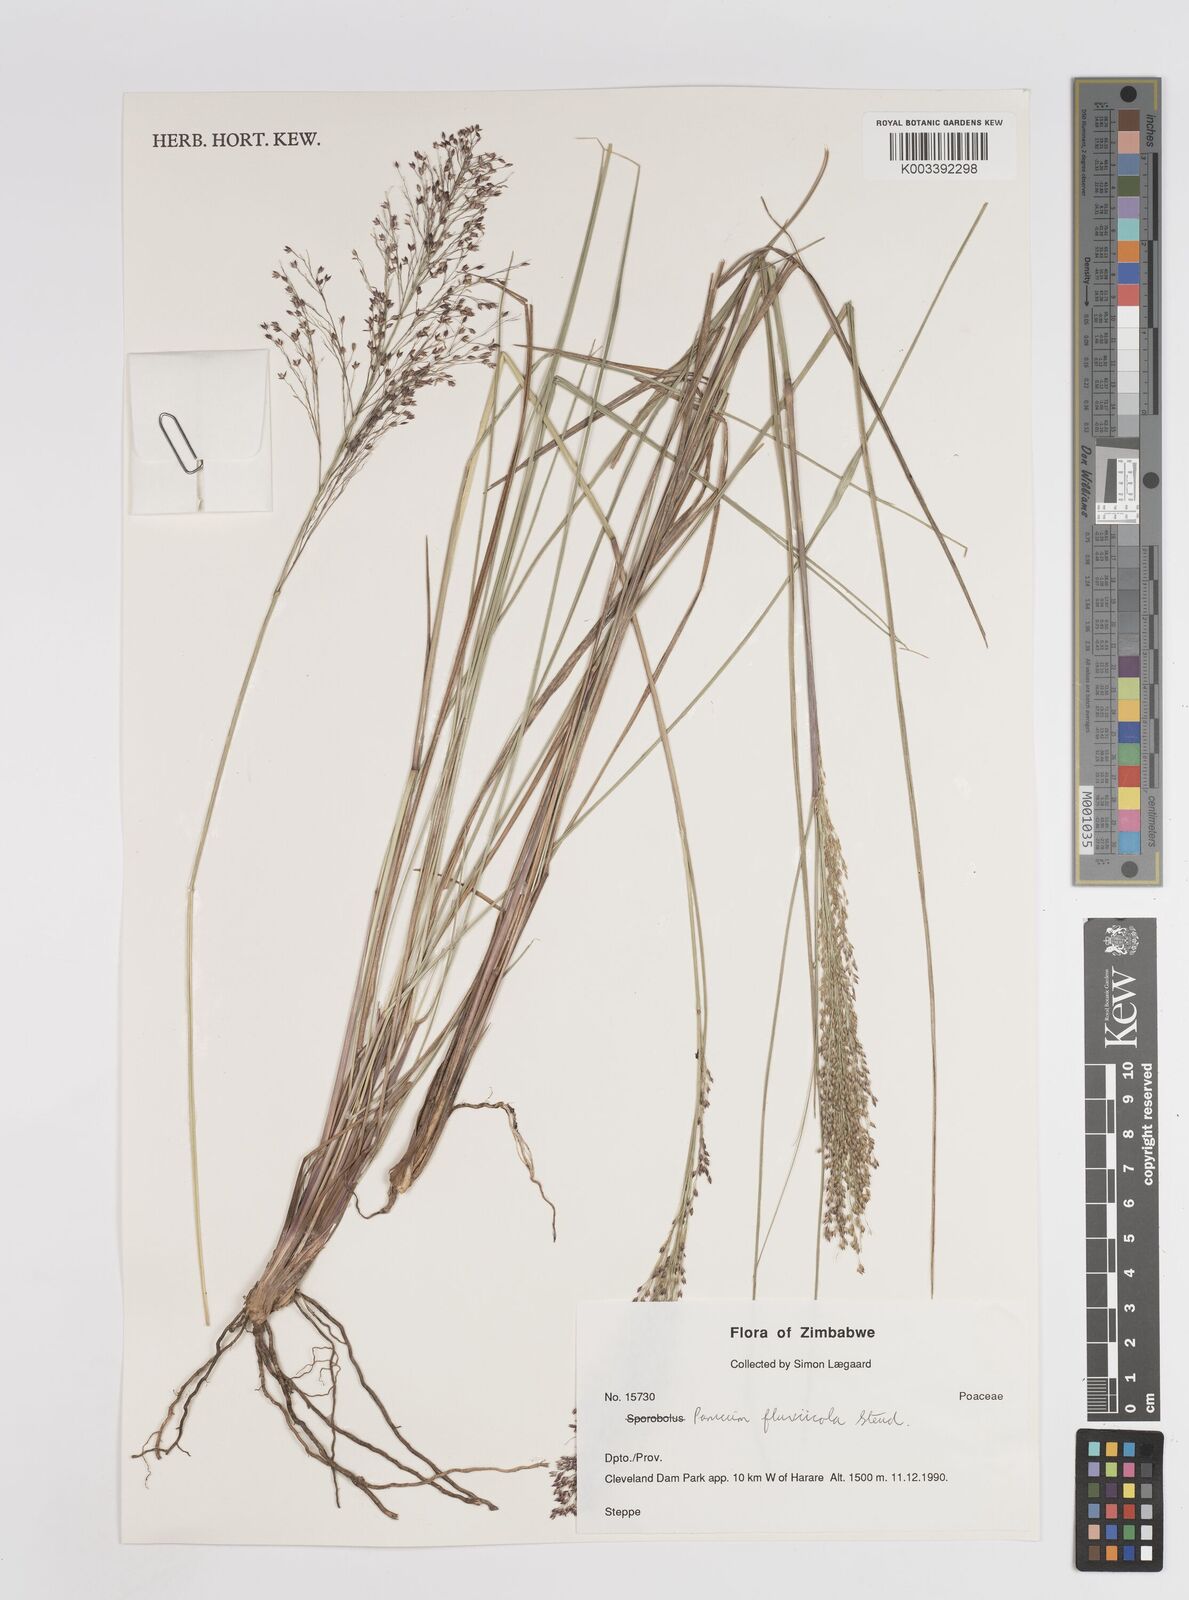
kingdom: Plantae
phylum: Tracheophyta
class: Liliopsida
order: Poales
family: Poaceae
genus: Panicum
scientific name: Panicum fluviicola
